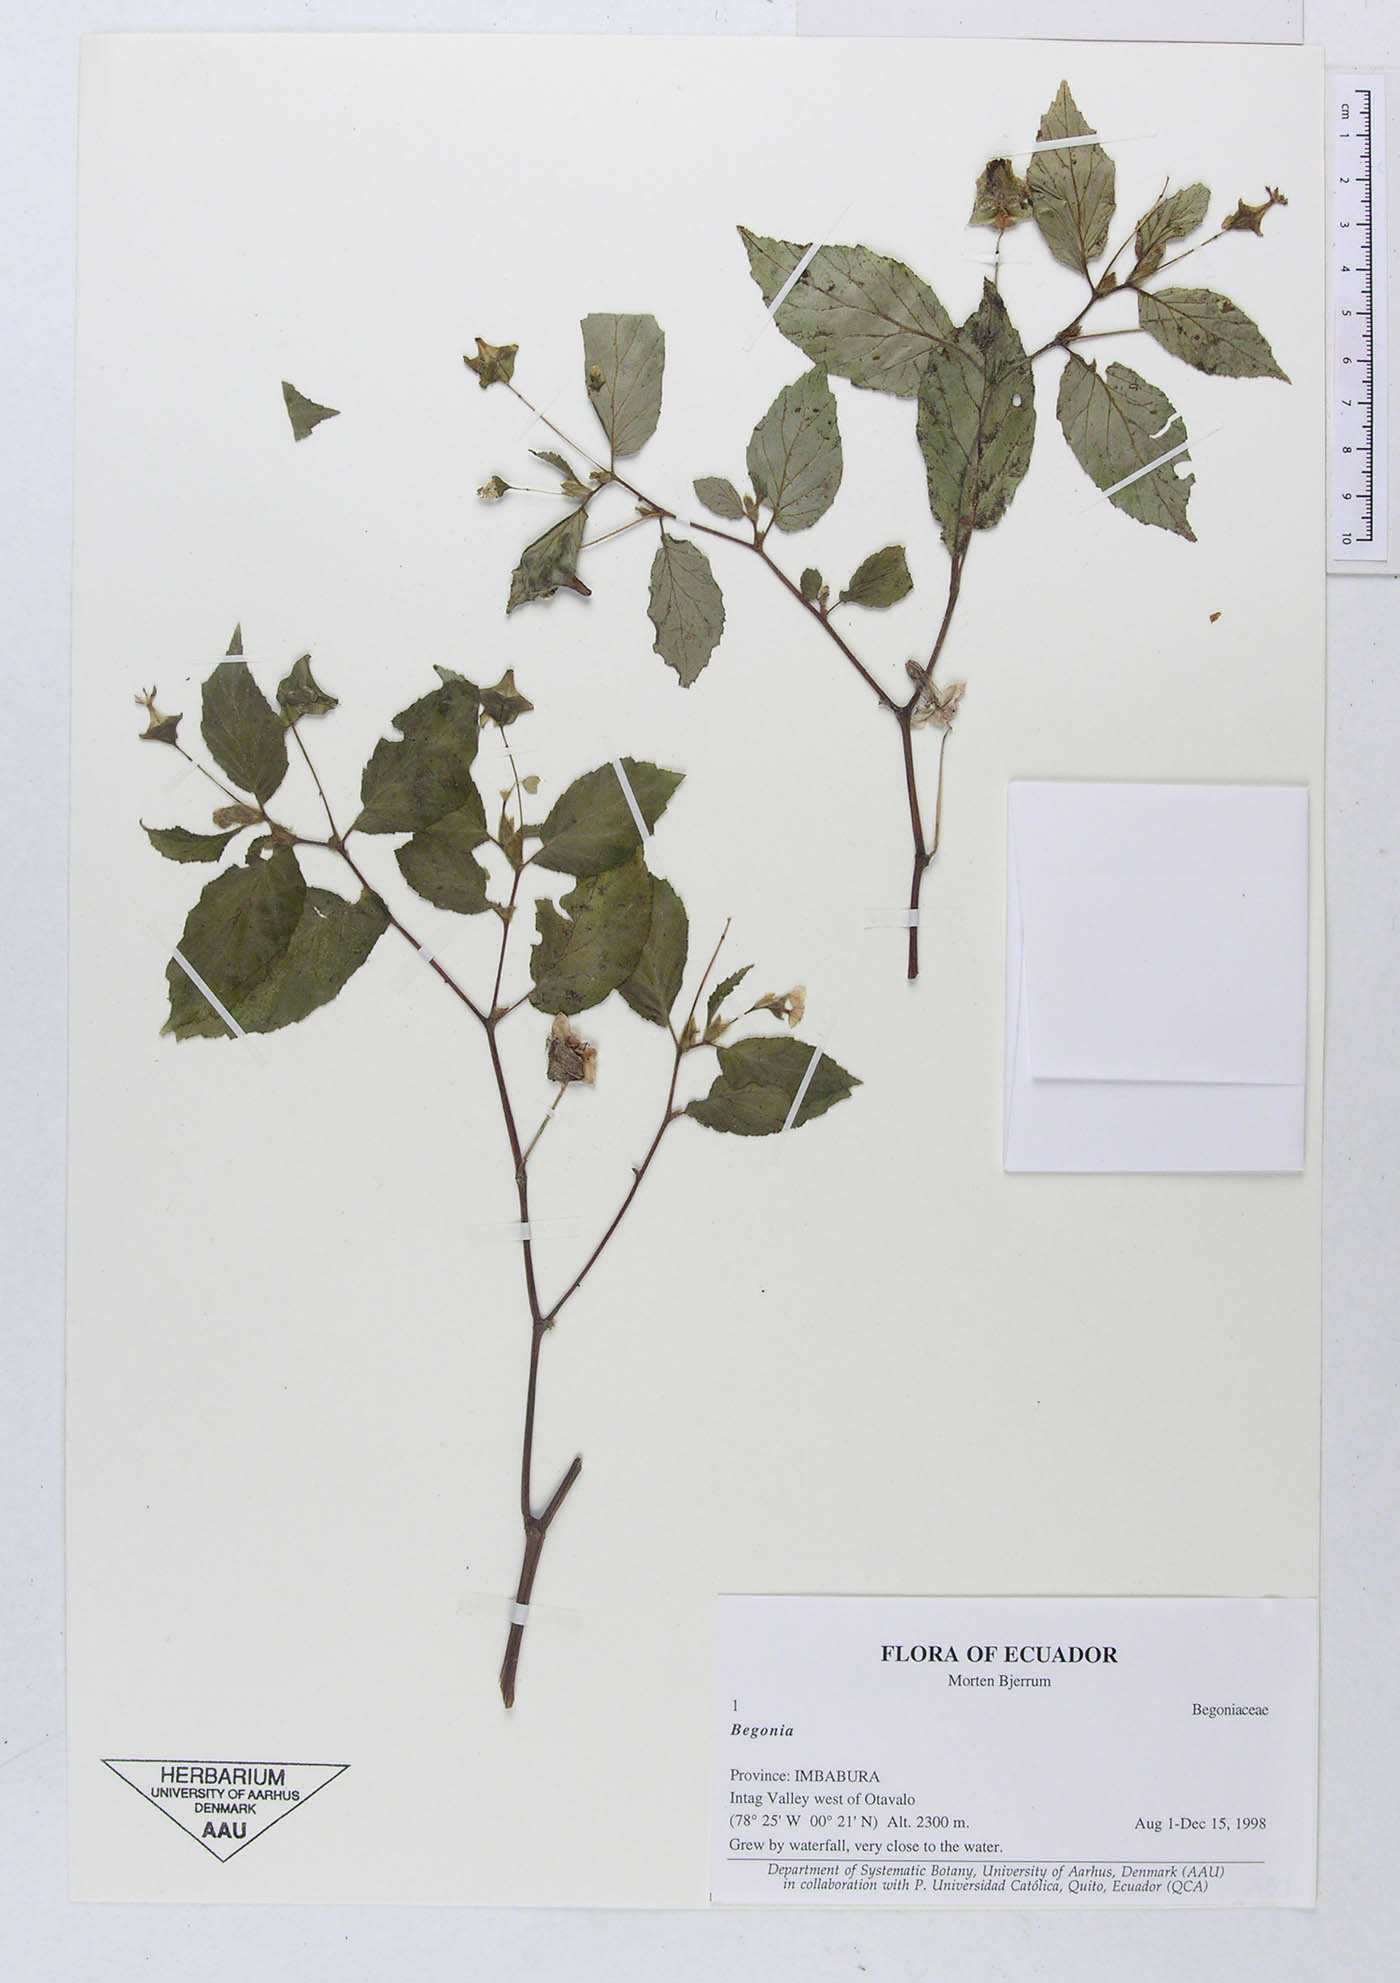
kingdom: Plantae
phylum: Tracheophyta
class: Magnoliopsida
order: Cucurbitales
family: Begoniaceae
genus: Begonia
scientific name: Begonia
